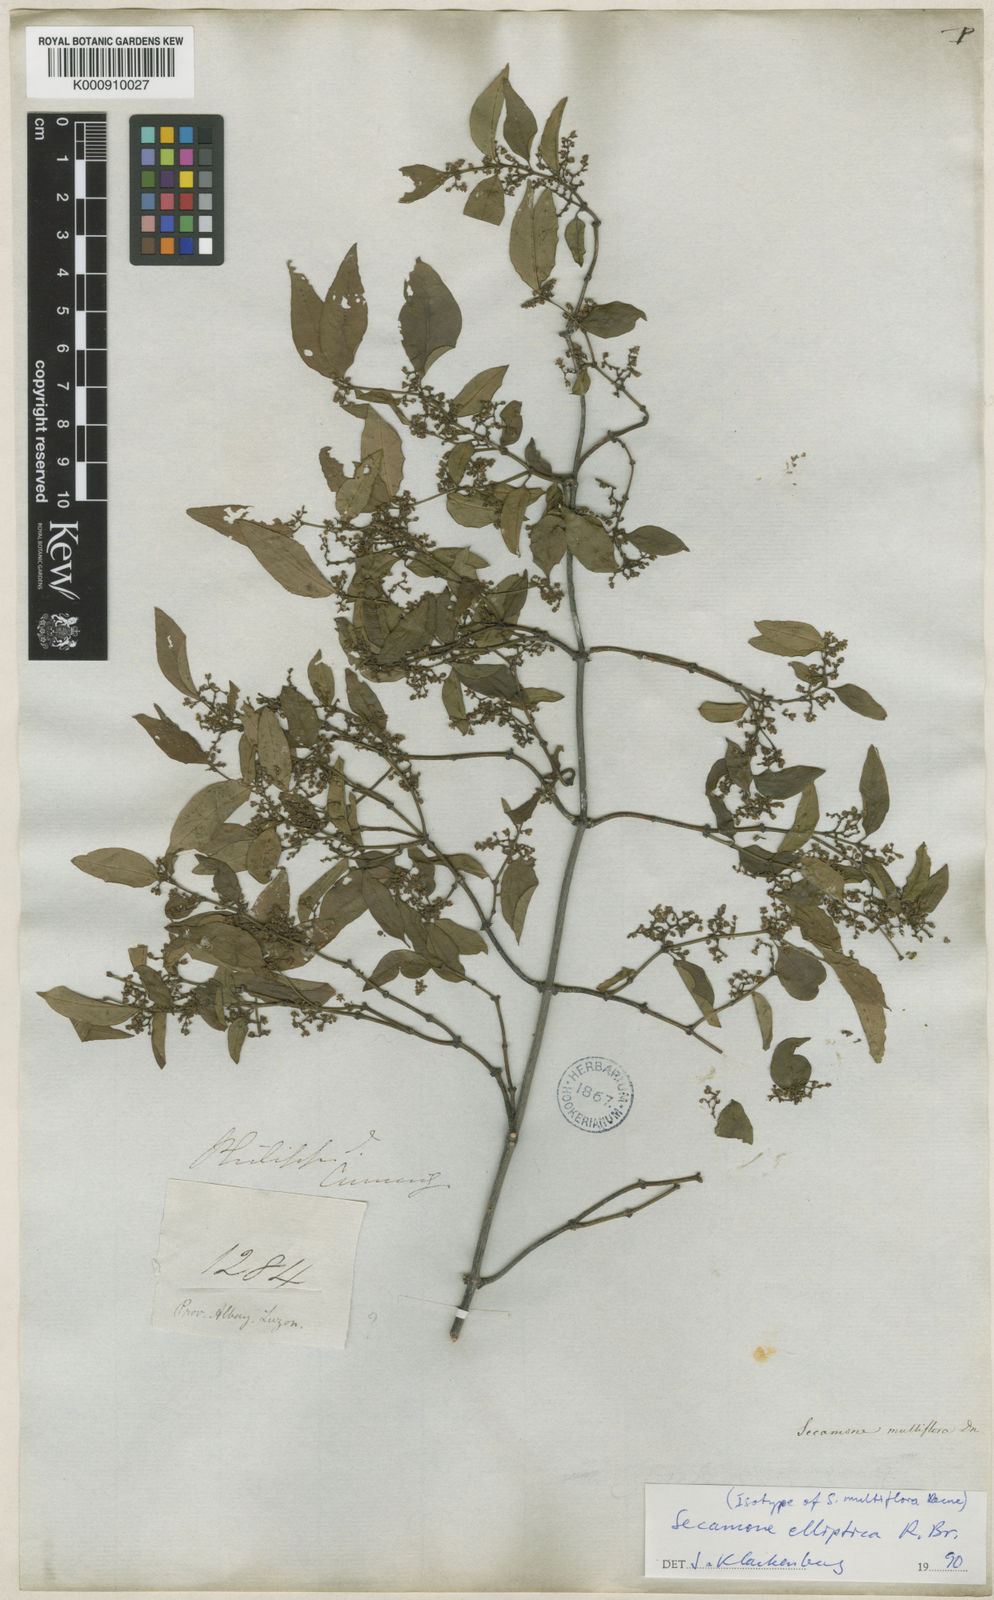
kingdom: Plantae
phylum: Tracheophyta
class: Magnoliopsida
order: Gentianales
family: Apocynaceae
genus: Secamone
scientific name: Secamone elliptica
